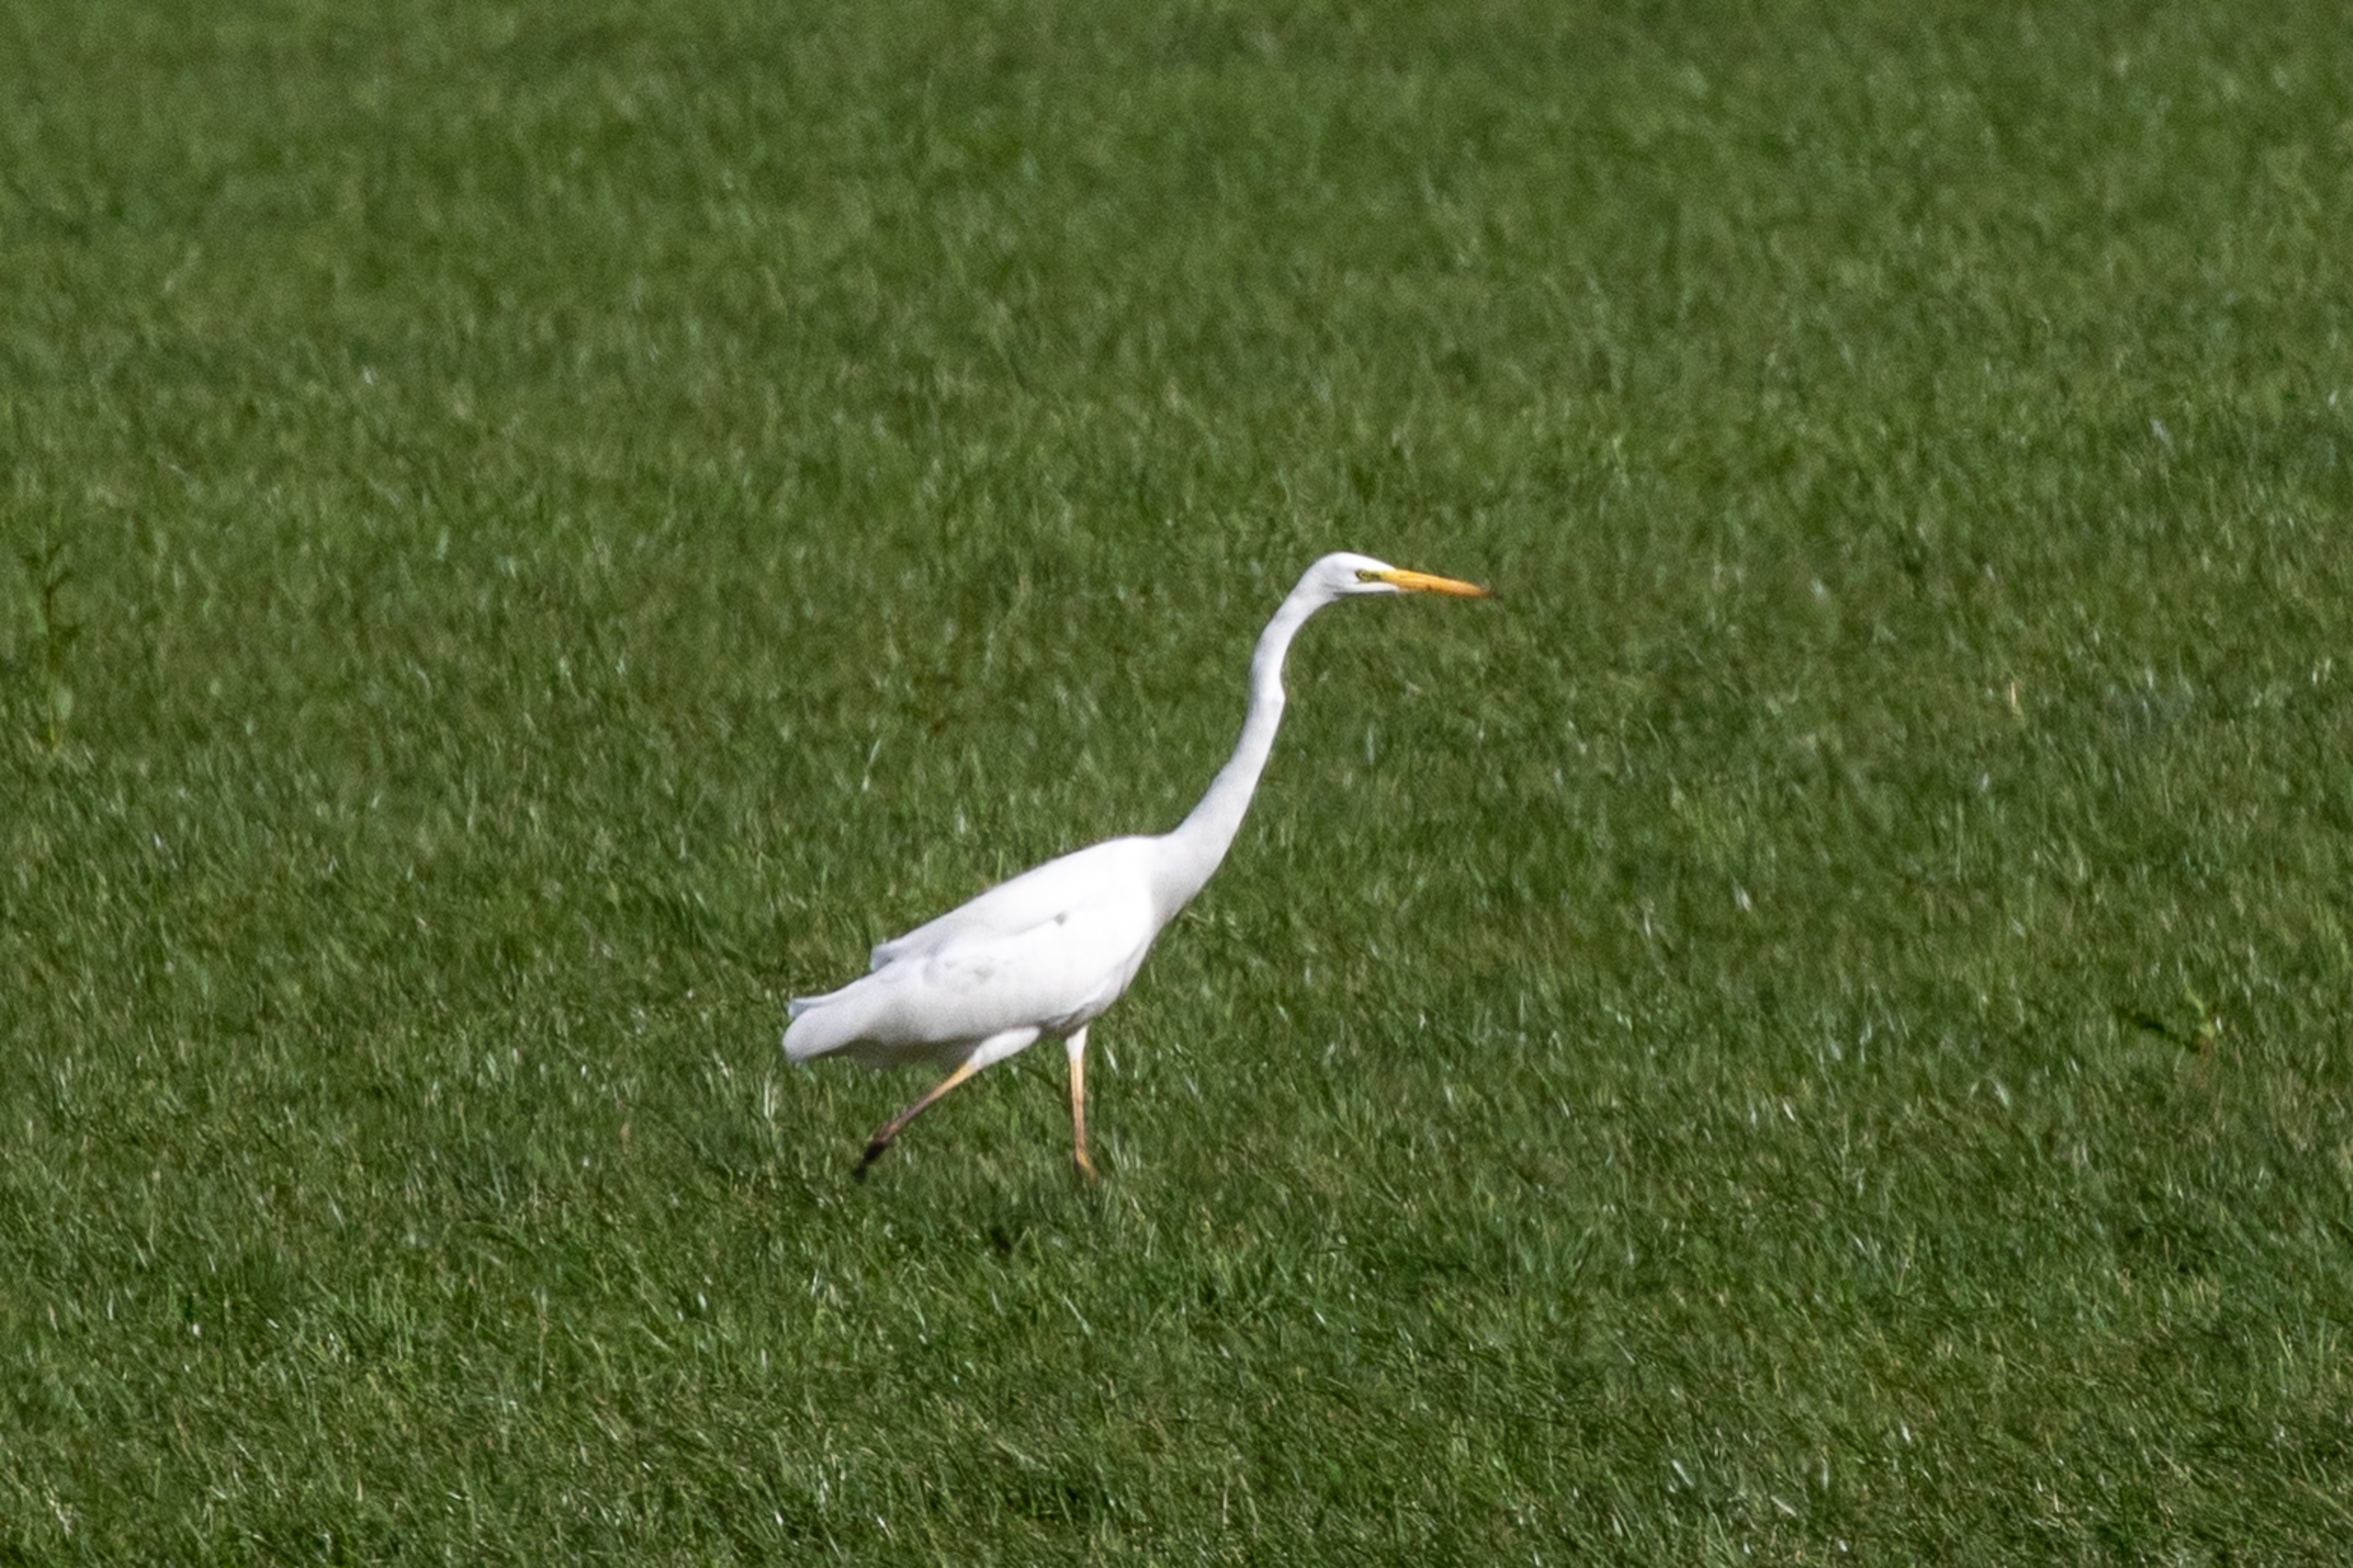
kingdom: Animalia
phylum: Chordata
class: Aves
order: Pelecaniformes
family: Ardeidae
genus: Ardea
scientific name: Ardea alba
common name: Sølvhejre
